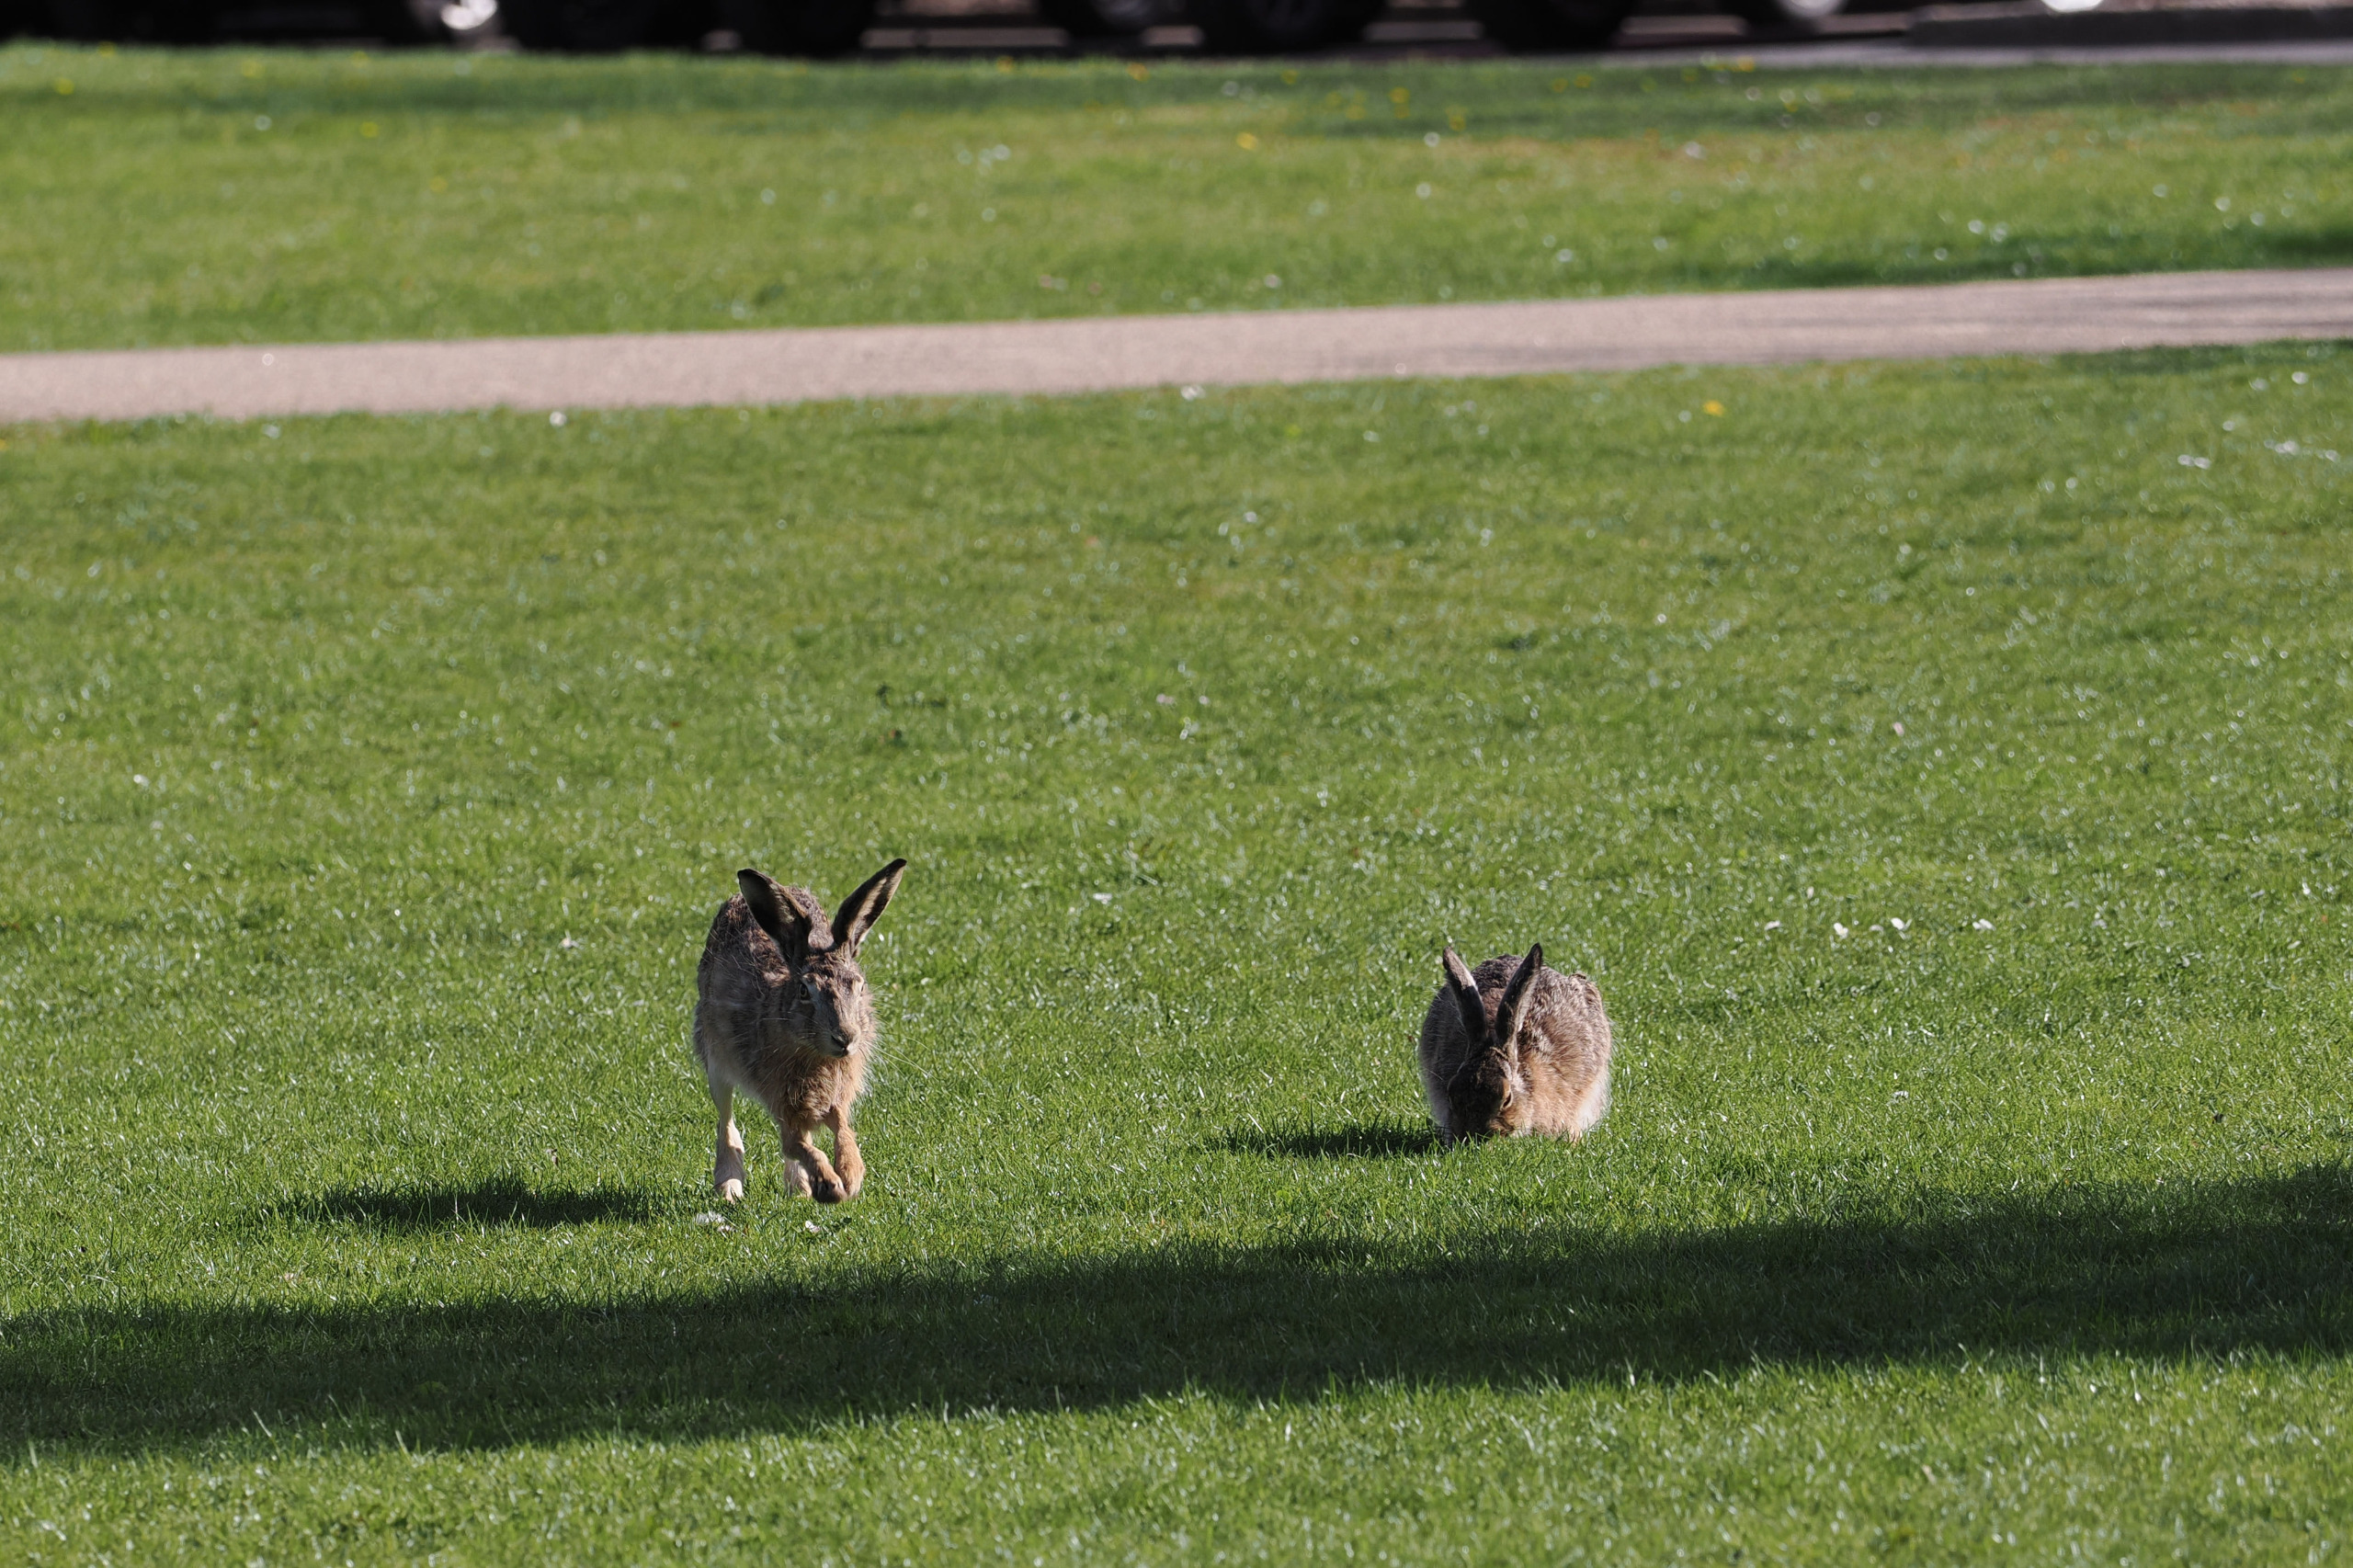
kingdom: Animalia
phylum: Chordata
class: Mammalia
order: Lagomorpha
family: Leporidae
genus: Lepus
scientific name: Lepus europaeus
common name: Hare
